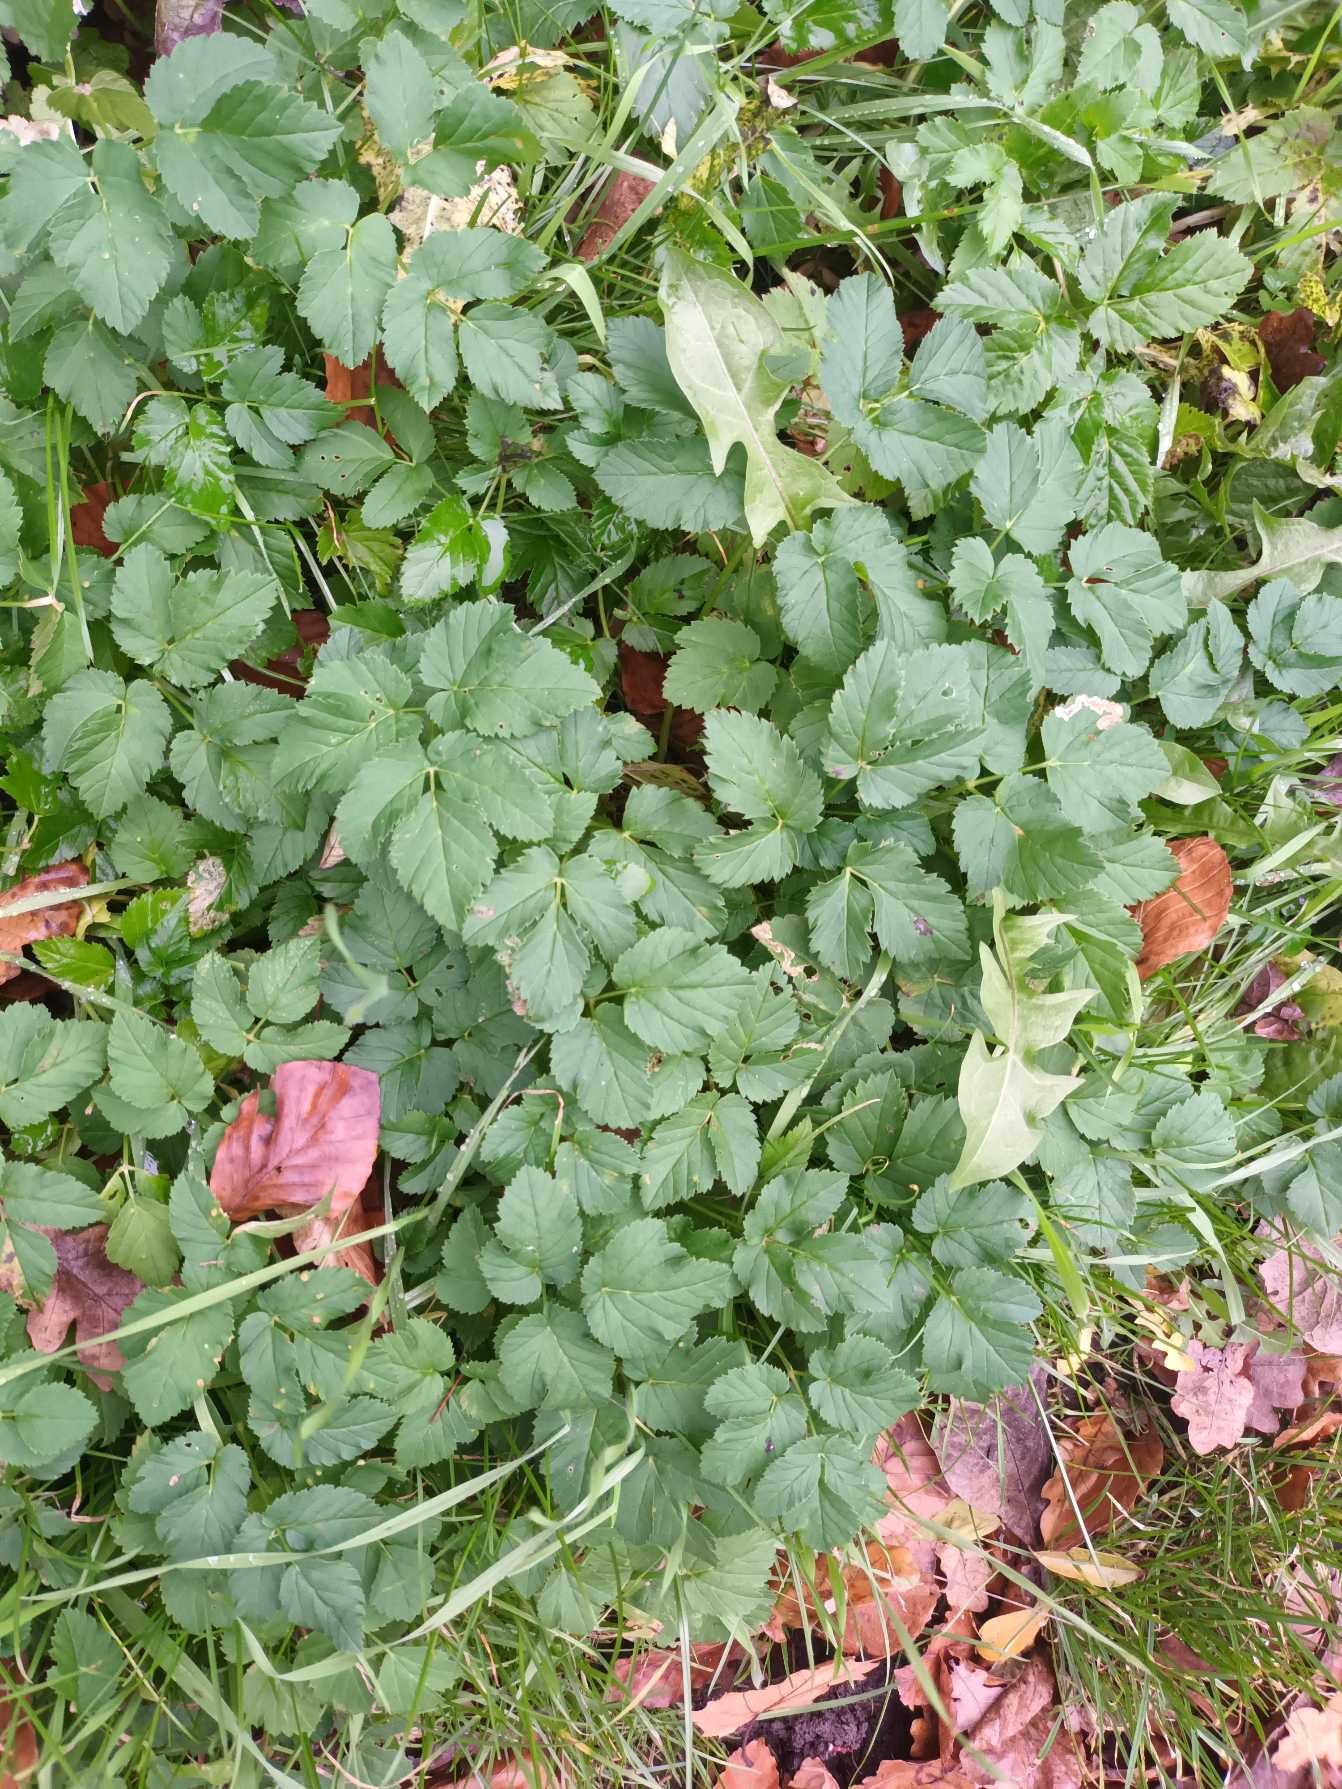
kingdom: Plantae
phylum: Tracheophyta
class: Magnoliopsida
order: Apiales
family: Apiaceae
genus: Aegopodium
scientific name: Aegopodium podagraria
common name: Skvalderkål
